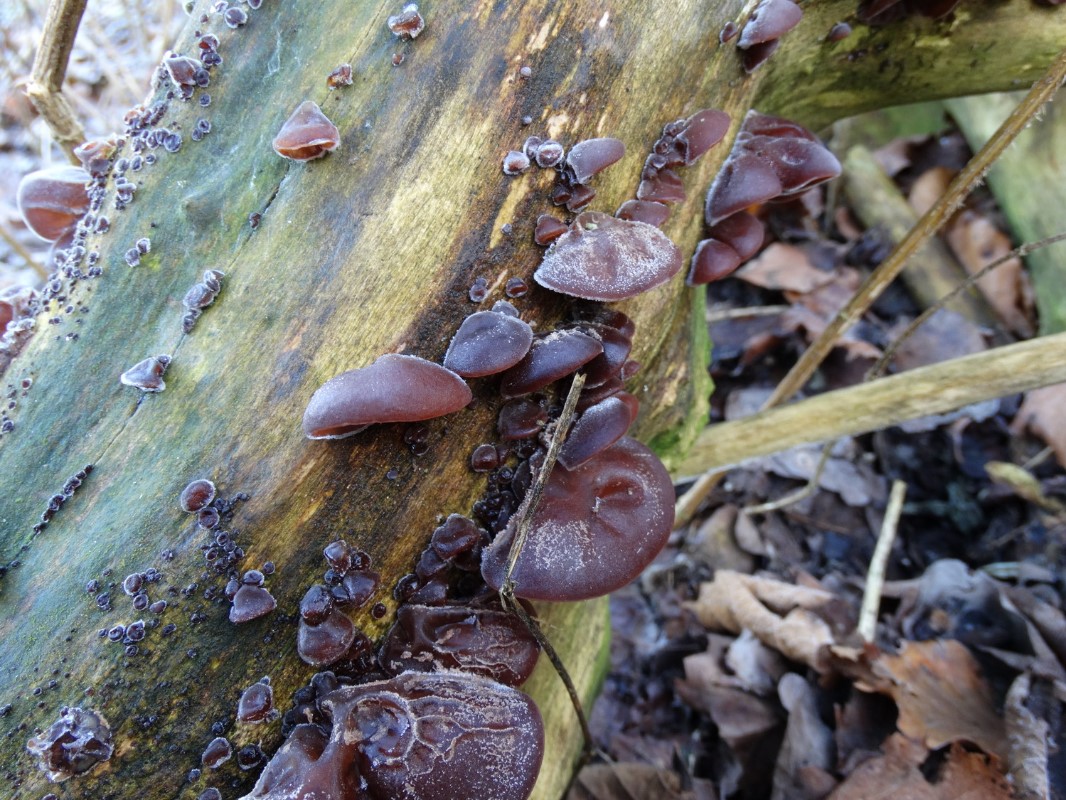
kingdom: Fungi
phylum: Basidiomycota
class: Agaricomycetes
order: Auriculariales
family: Auriculariaceae
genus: Auricularia
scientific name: Auricularia auricula-judae
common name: almindelig judasøre
